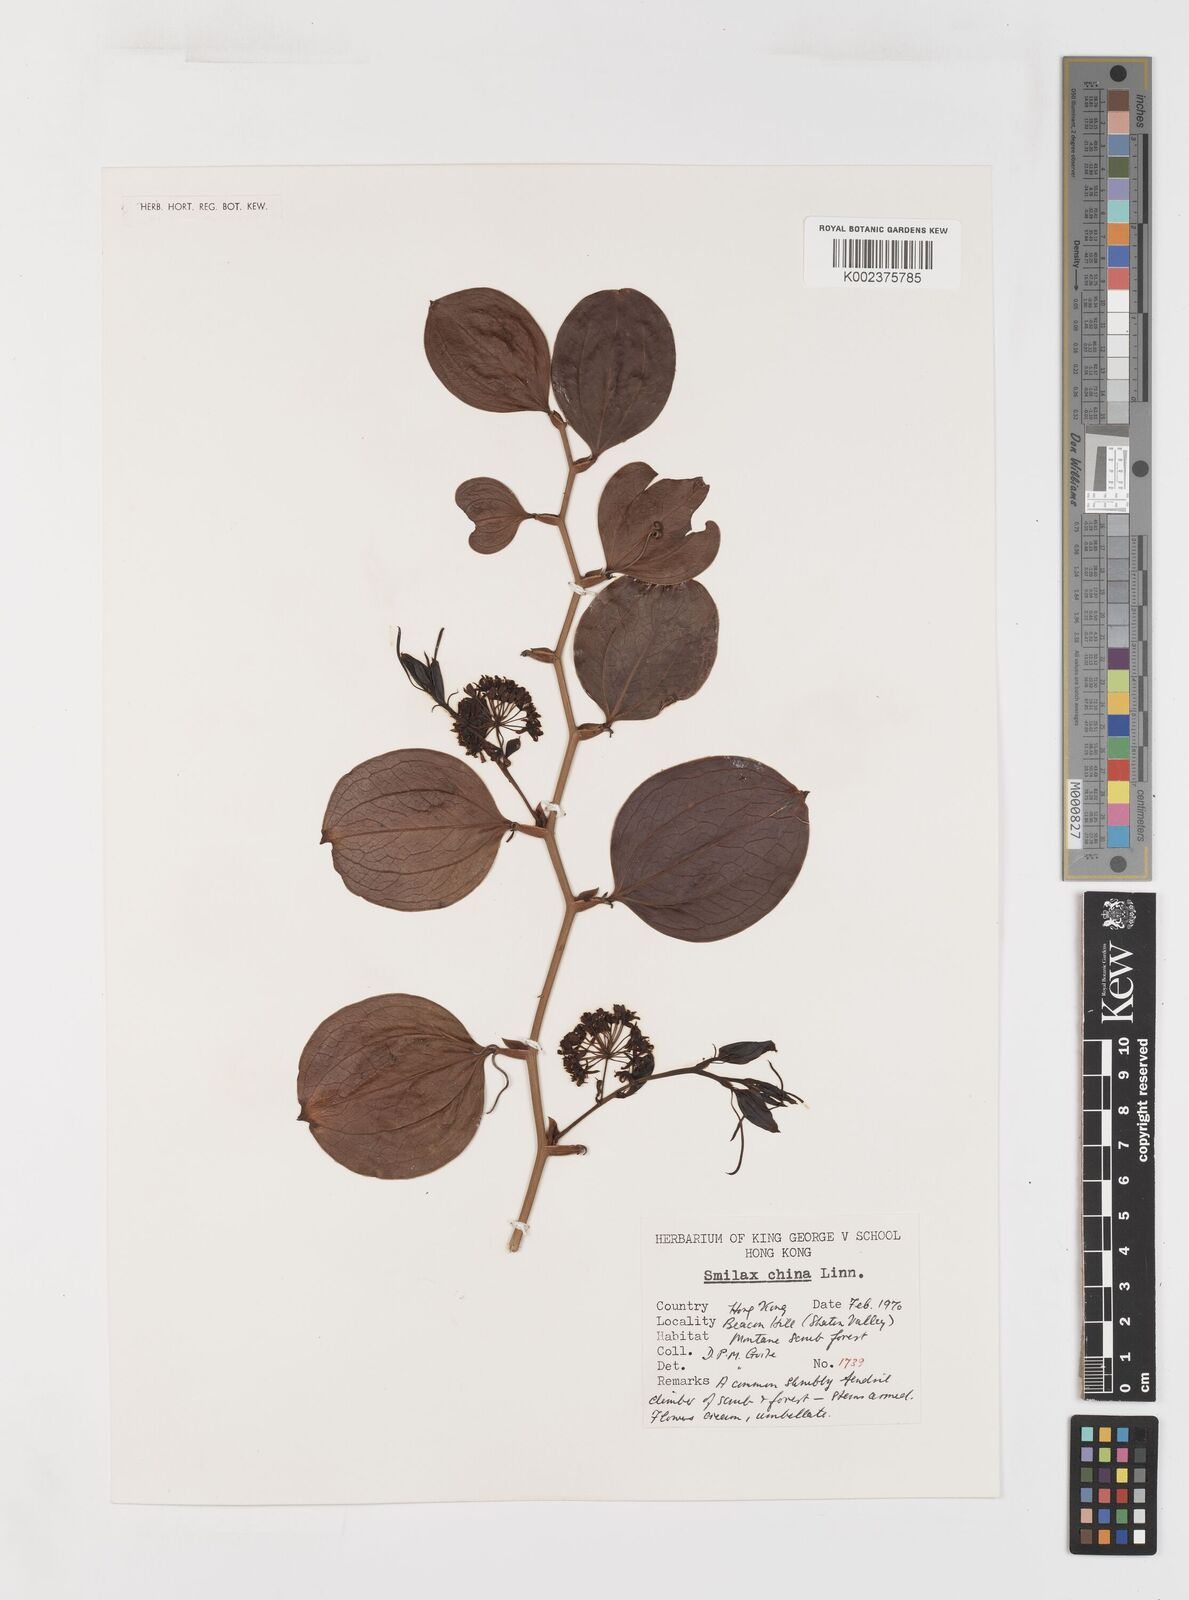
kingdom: Plantae
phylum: Tracheophyta
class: Liliopsida
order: Liliales
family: Smilacaceae
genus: Smilax
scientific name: Smilax china
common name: Chinaroot
